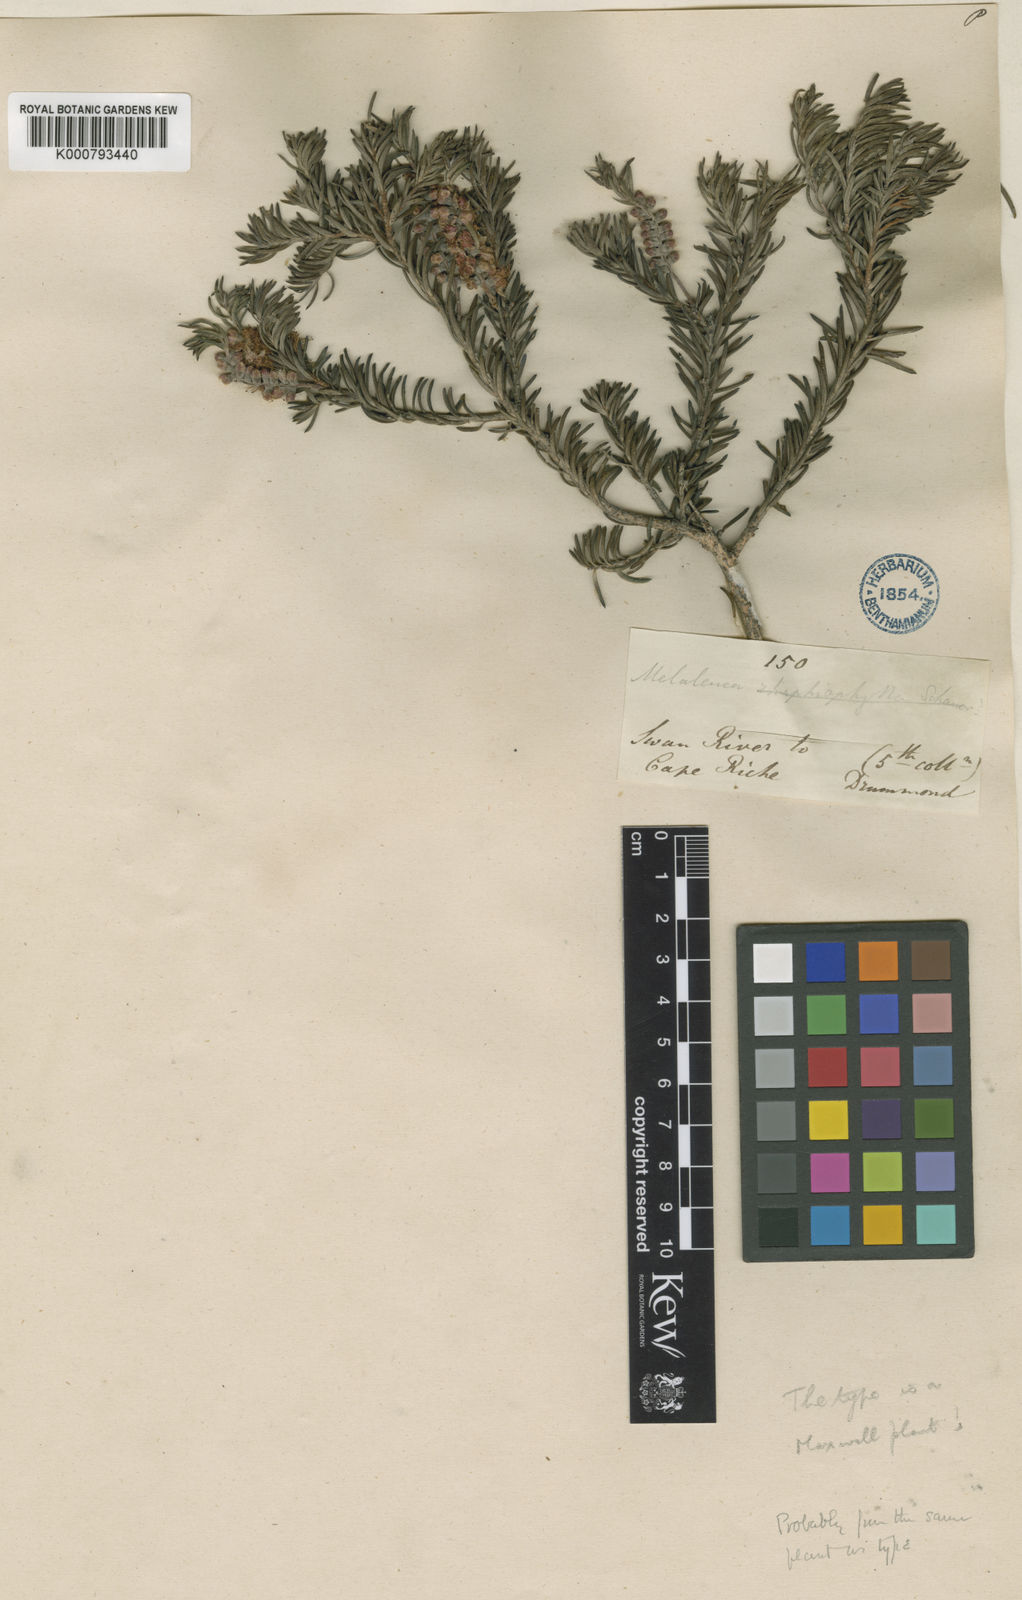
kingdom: Plantae
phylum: Tracheophyta
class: Magnoliopsida
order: Myrtales
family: Myrtaceae
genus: Melaleuca
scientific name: Melaleuca subfalcata
